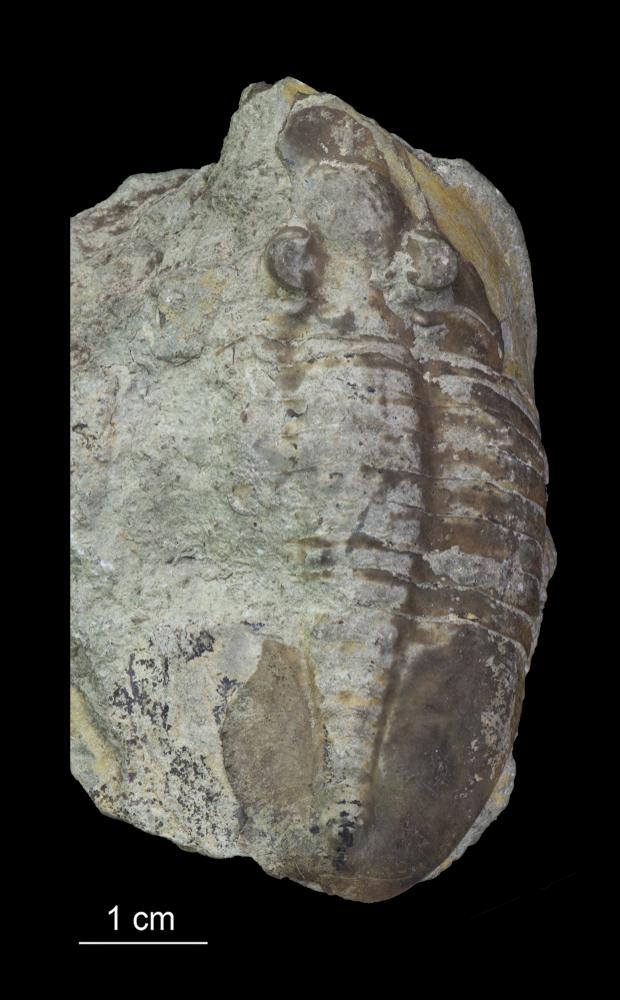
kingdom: Animalia
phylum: Arthropoda
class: Trilobita
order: Asaphida
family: Asaphidae
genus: Ptychopyge
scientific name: Ptychopyge
